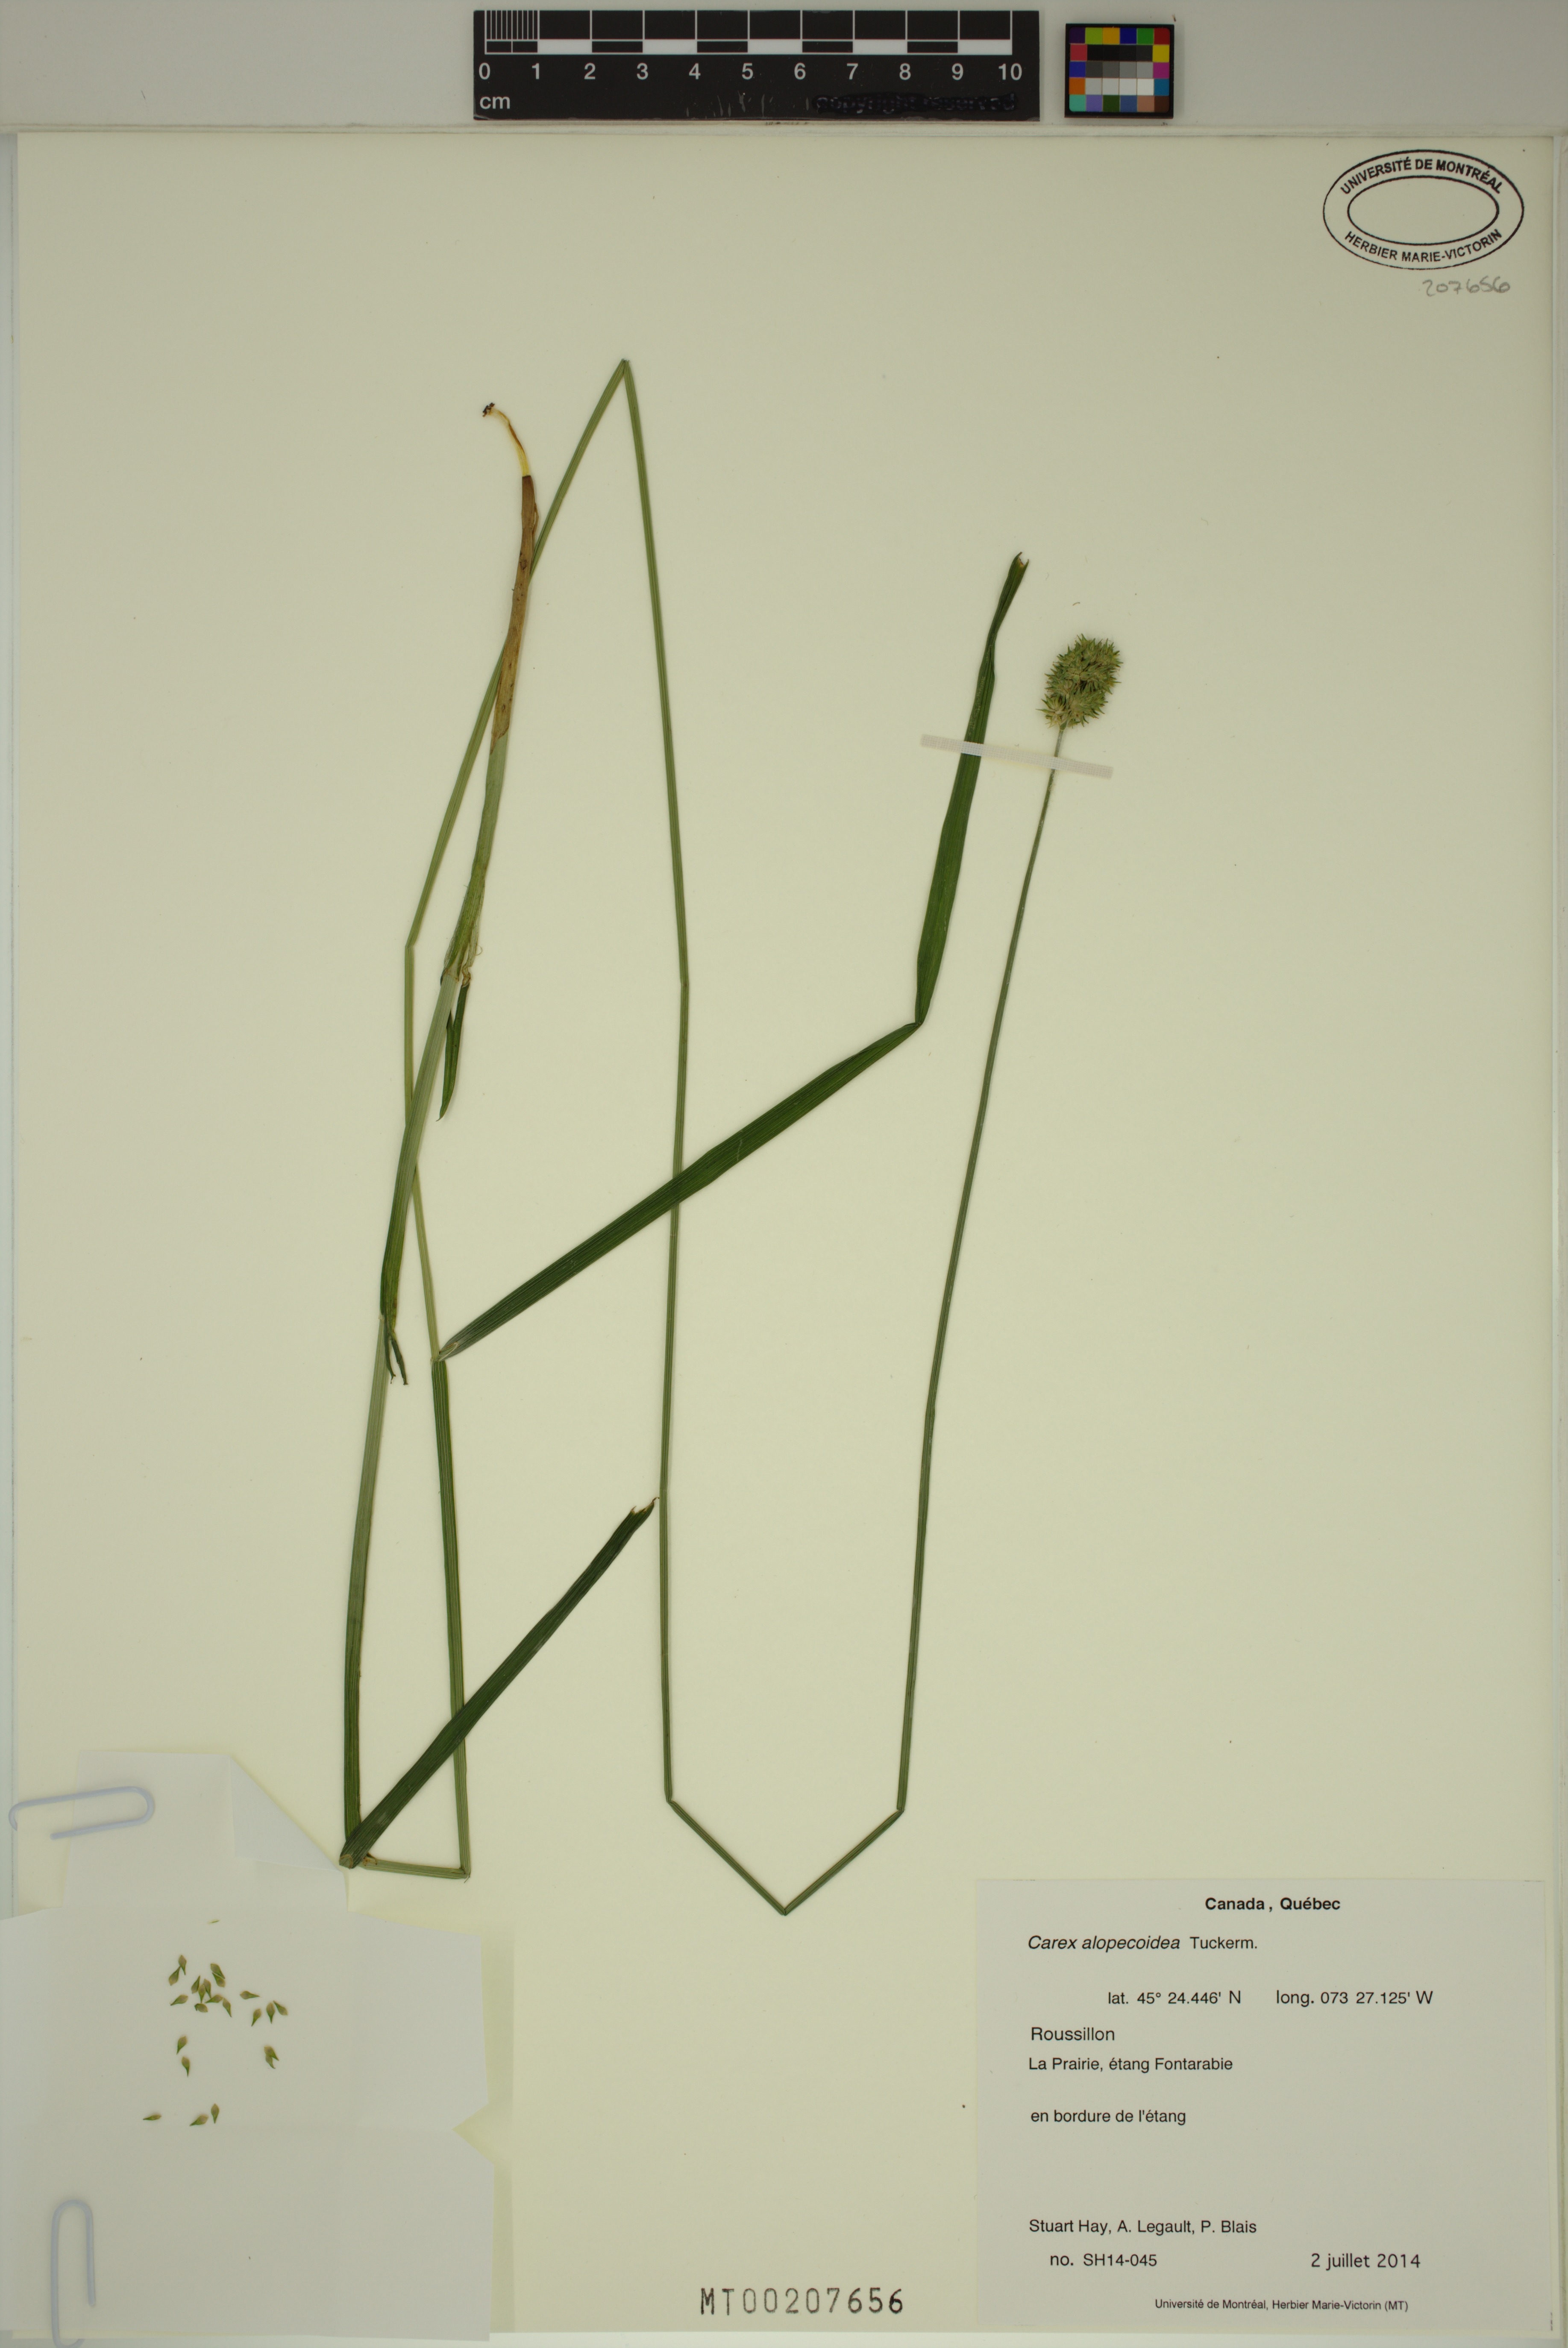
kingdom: Plantae
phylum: Tracheophyta
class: Liliopsida
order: Poales
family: Cyperaceae
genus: Carex
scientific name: Carex alopecoidea
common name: Brown-headed fox sedge
